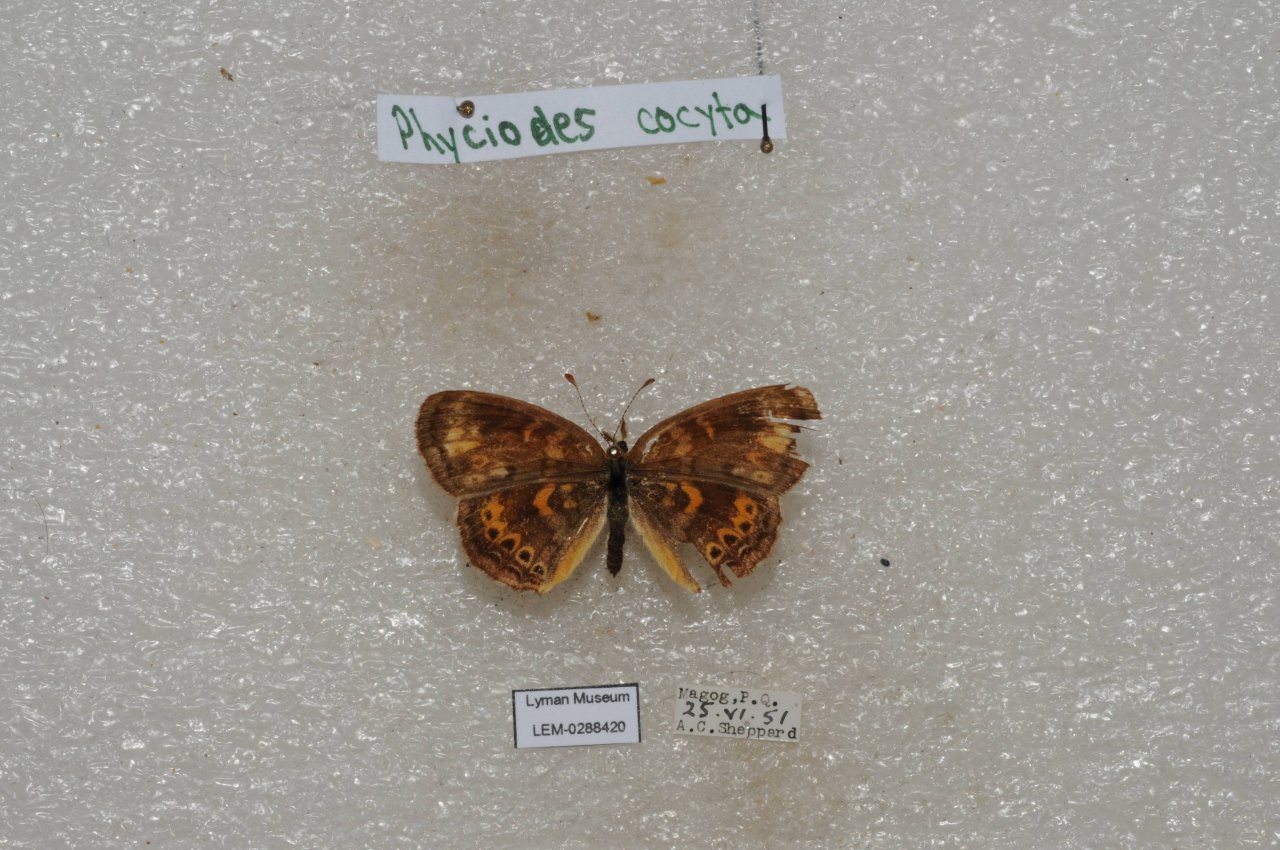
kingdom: Animalia
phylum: Arthropoda
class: Insecta
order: Lepidoptera
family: Nymphalidae
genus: Phyciodes
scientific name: Phyciodes tharos
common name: Northern Crescent
